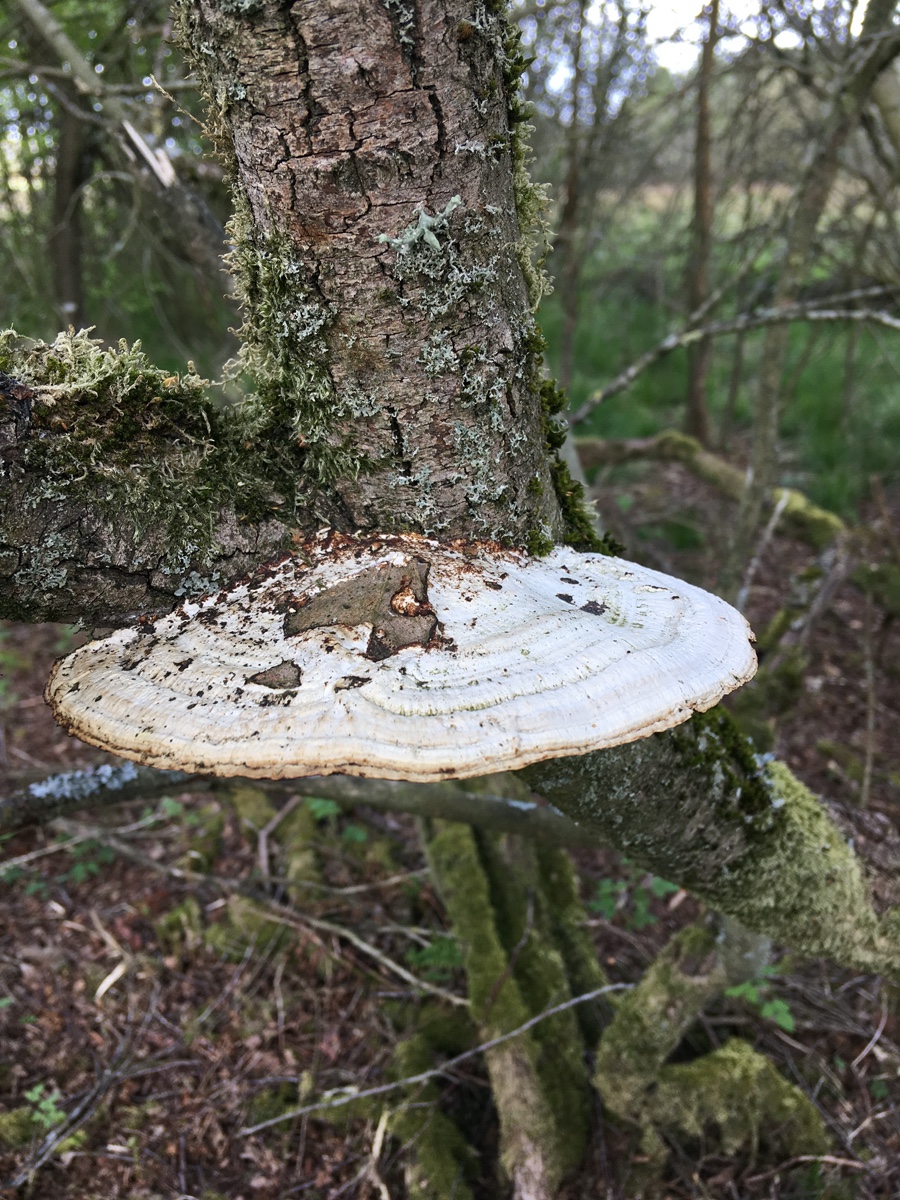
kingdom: Fungi
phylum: Basidiomycota
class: Agaricomycetes
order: Polyporales
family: Polyporaceae
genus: Daedaleopsis
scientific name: Daedaleopsis confragosa
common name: rødmende læderporesvamp
